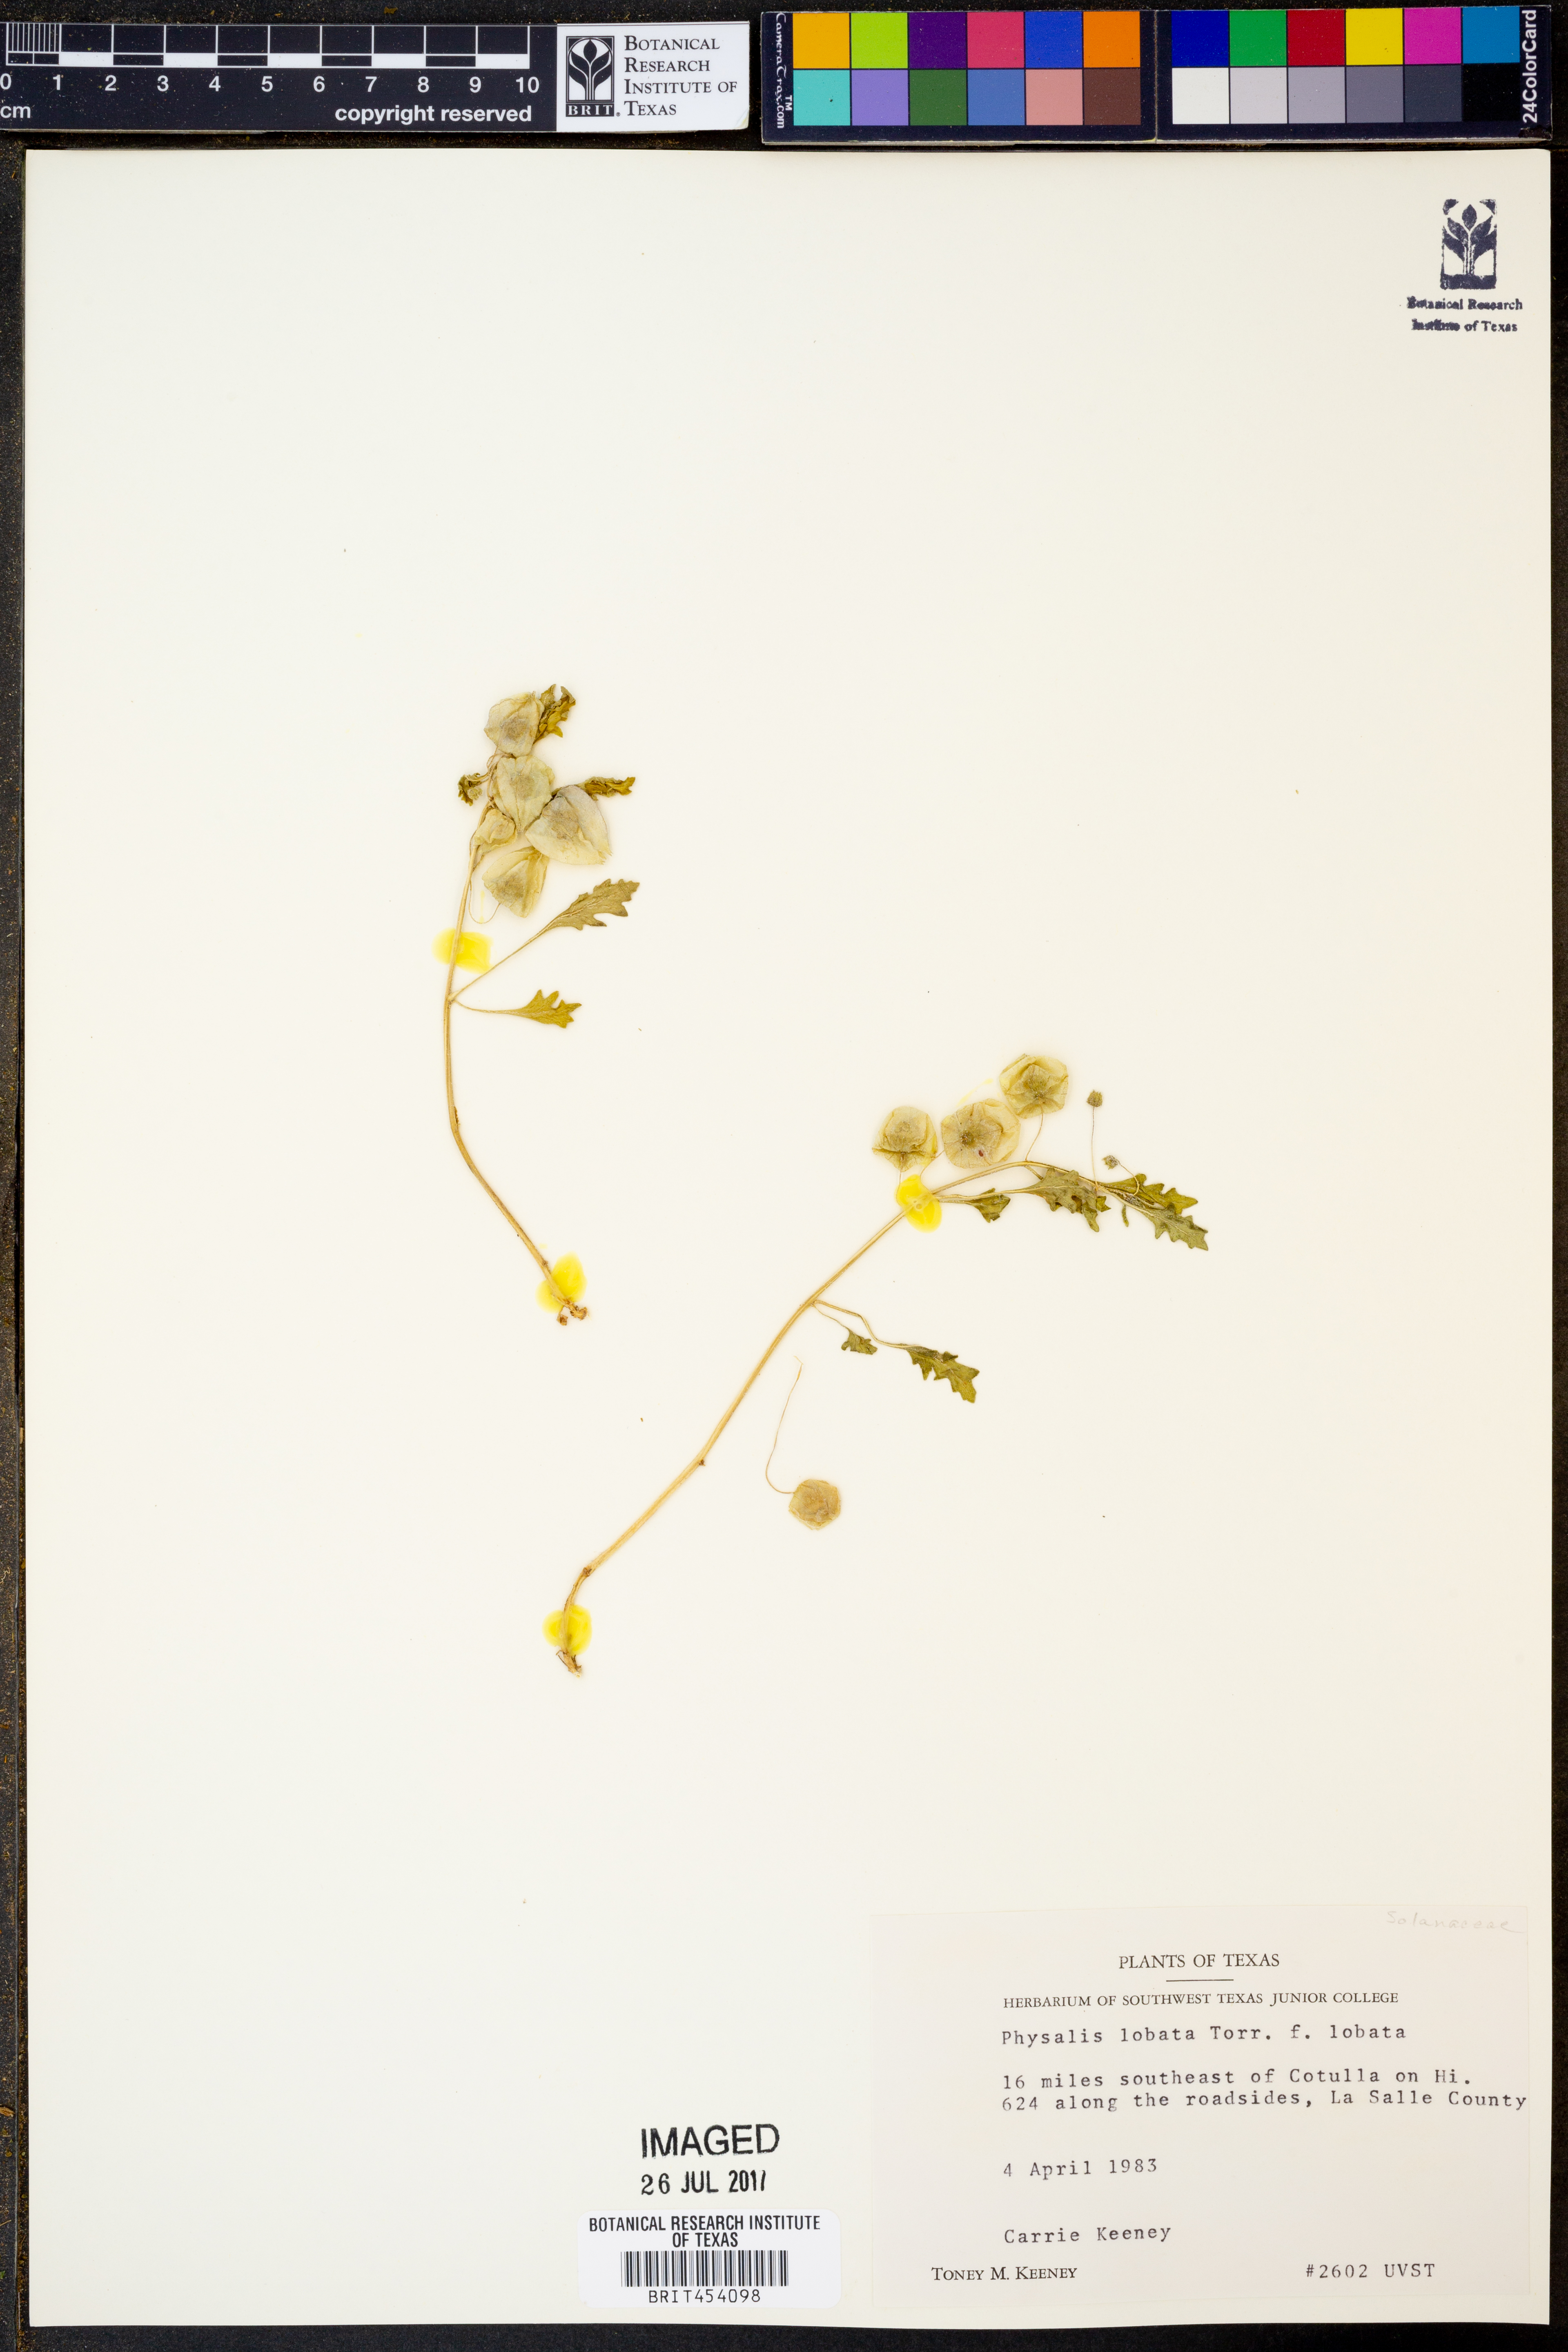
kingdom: Plantae
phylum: Tracheophyta
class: Magnoliopsida
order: Solanales
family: Solanaceae
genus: Quincula
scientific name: Quincula lobata
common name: Purple-ground-cherry
